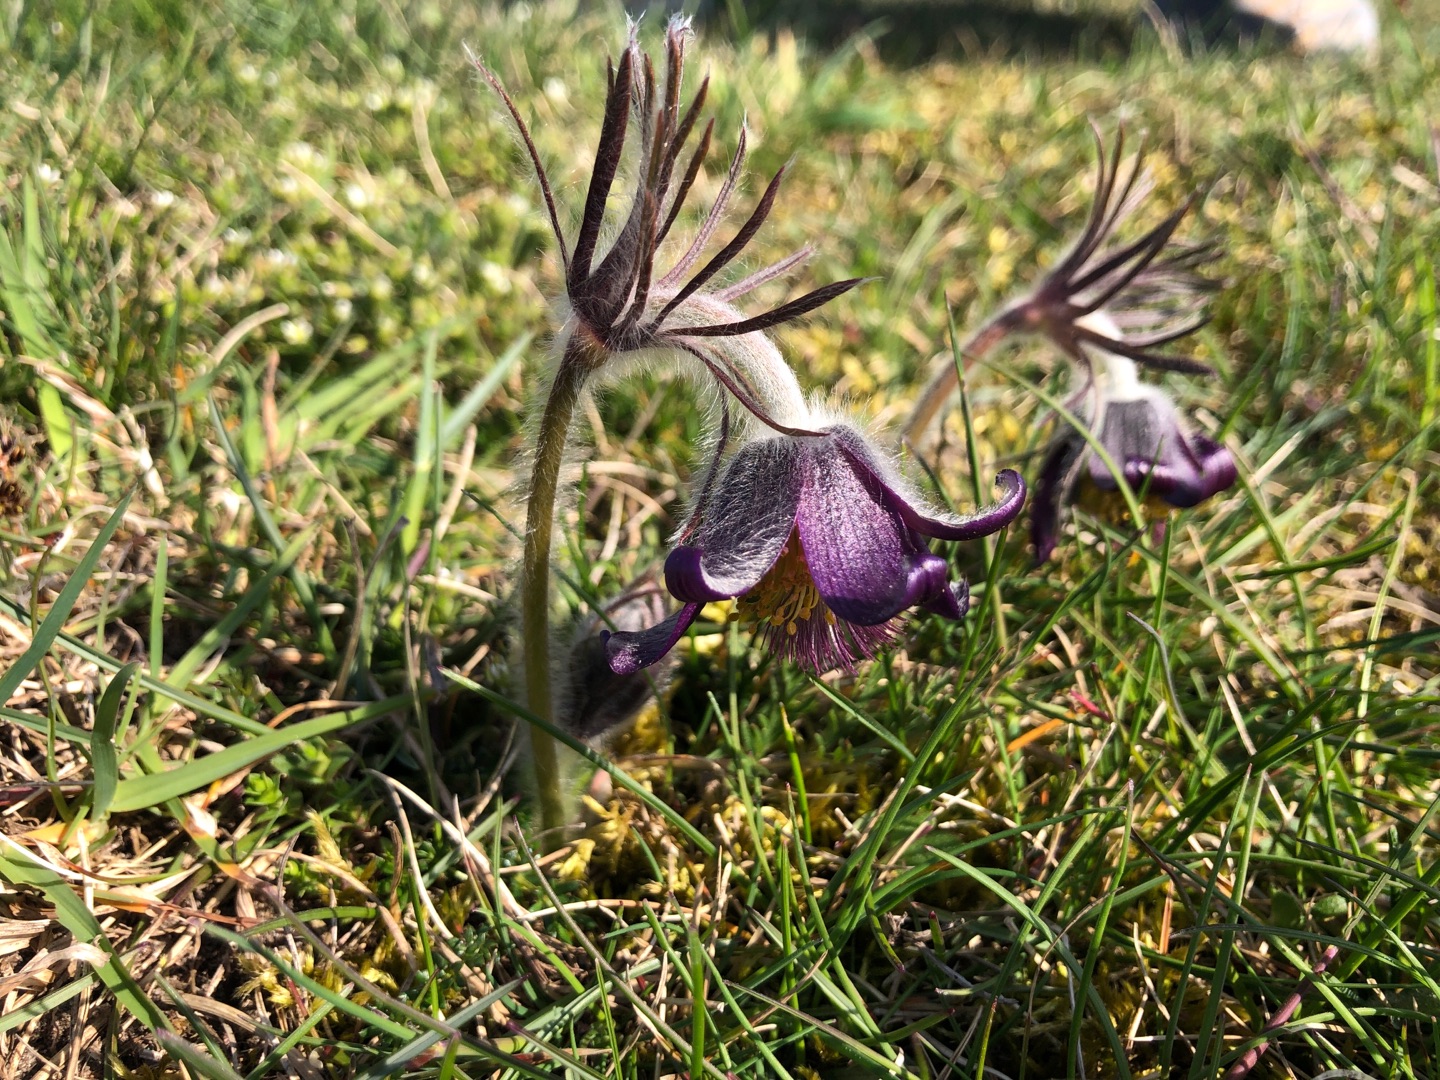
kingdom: Plantae
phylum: Tracheophyta
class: Magnoliopsida
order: Ranunculales
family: Ranunculaceae
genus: Pulsatilla
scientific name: Pulsatilla pratensis
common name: Nikkende kobjælde
